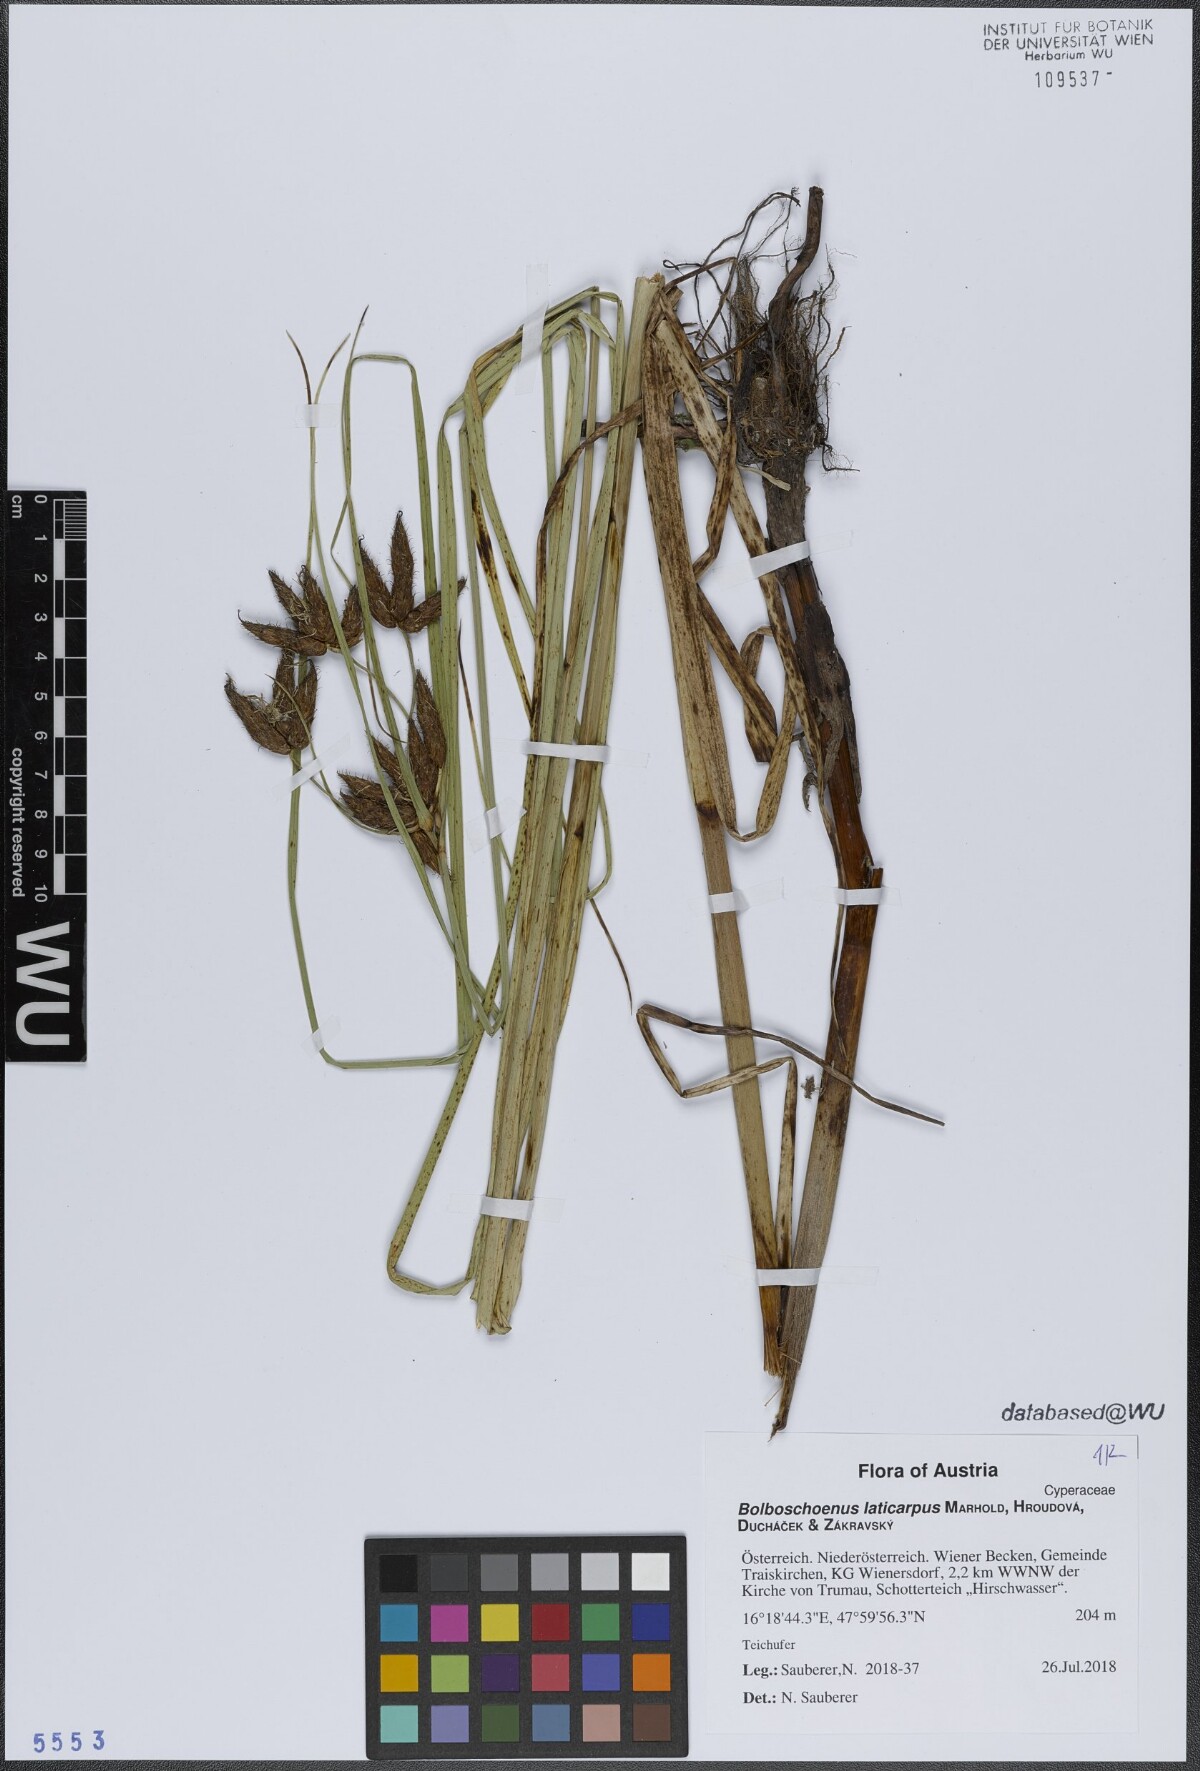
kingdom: Plantae
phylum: Tracheophyta
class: Liliopsida
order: Poales
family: Cyperaceae
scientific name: Cyperaceae
